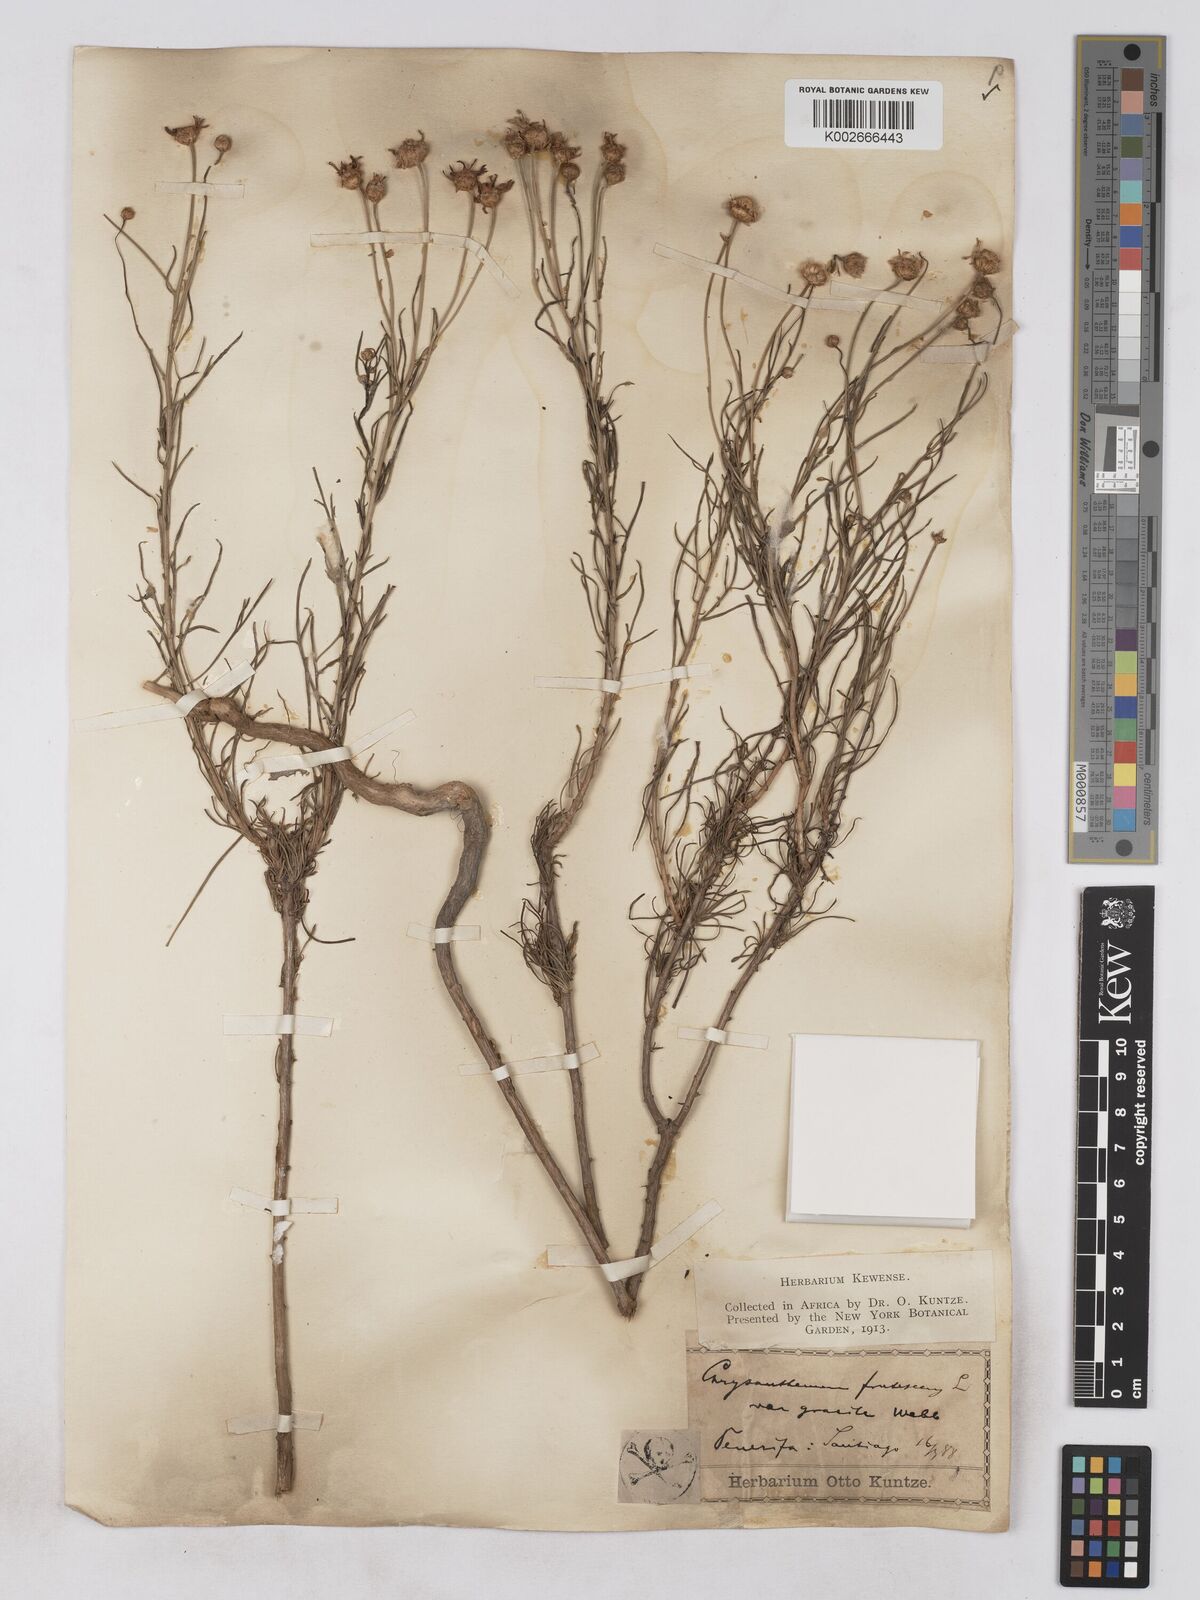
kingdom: Plantae
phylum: Tracheophyta
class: Magnoliopsida
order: Asterales
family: Asteraceae
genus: Argyranthemum
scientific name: Argyranthemum gracile
